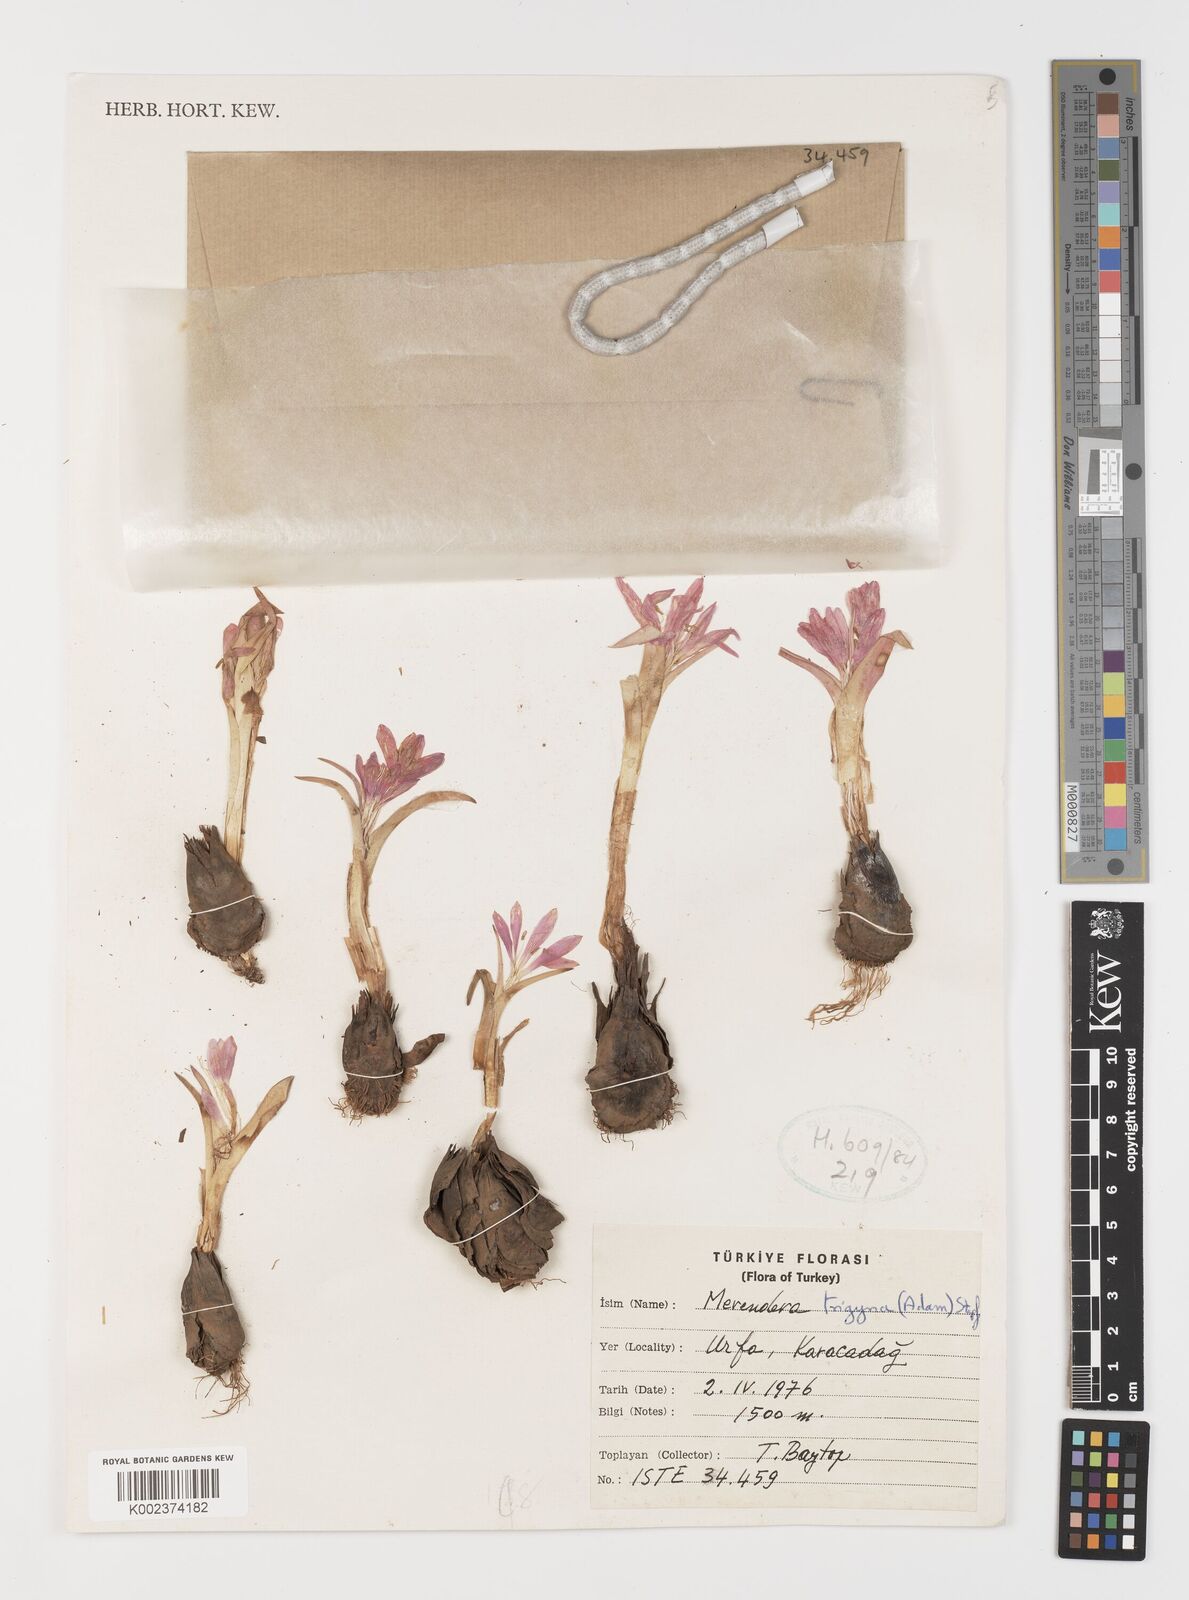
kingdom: Plantae
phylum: Tracheophyta
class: Liliopsida
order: Liliales
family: Colchicaceae
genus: Colchicum
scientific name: Colchicum manissadjianii
